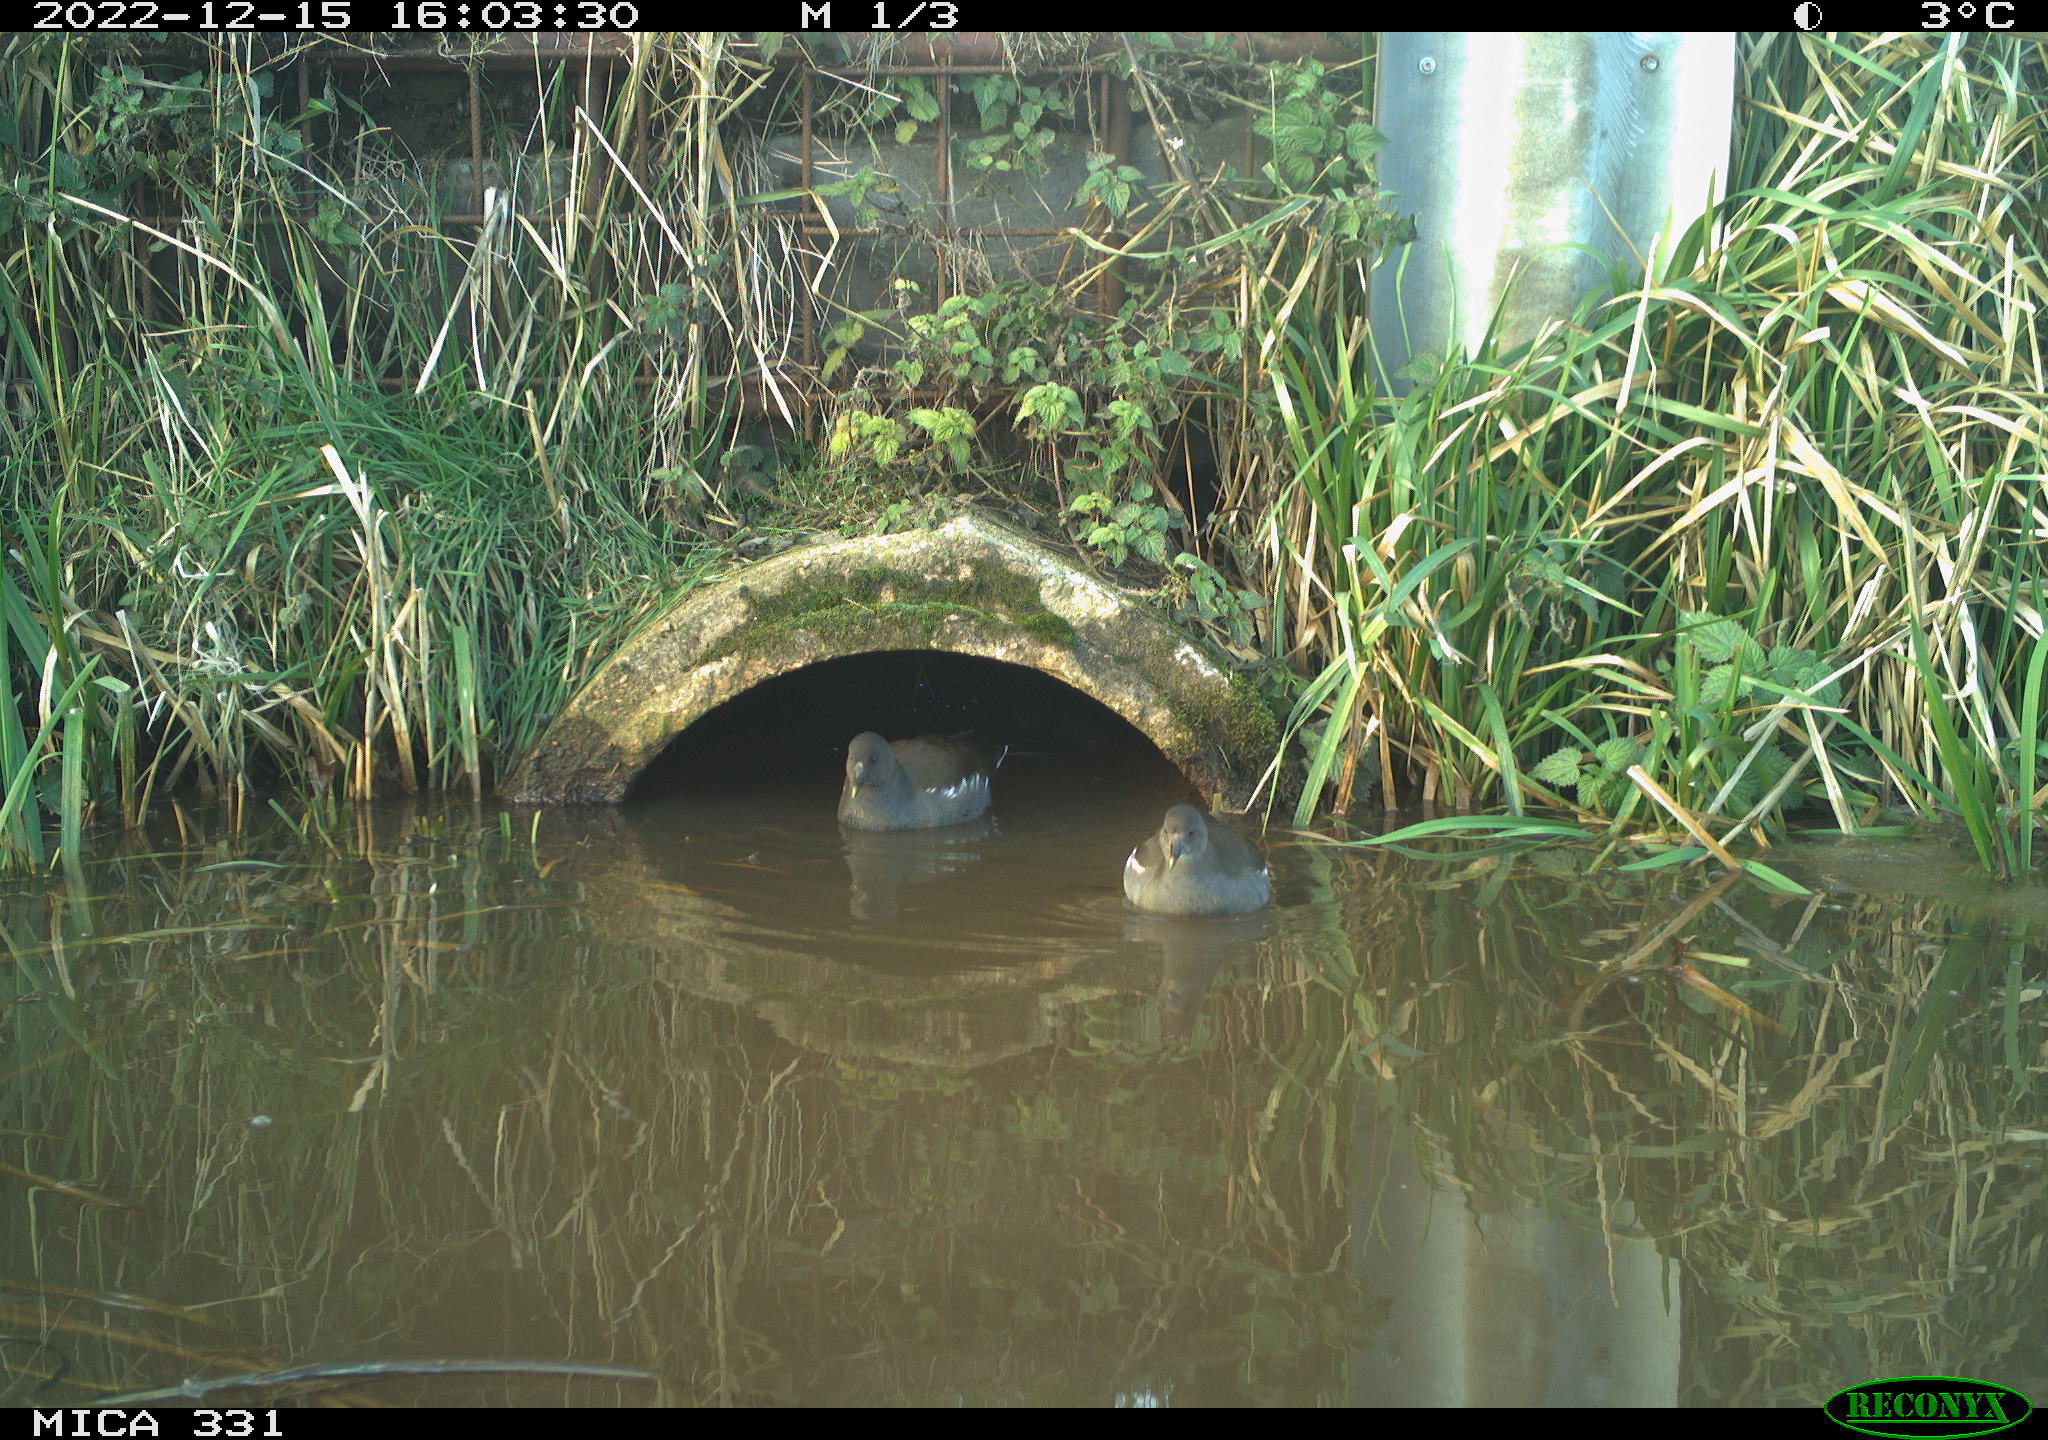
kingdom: Animalia
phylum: Chordata
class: Aves
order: Gruiformes
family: Rallidae
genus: Gallinula
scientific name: Gallinula chloropus
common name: Common moorhen
